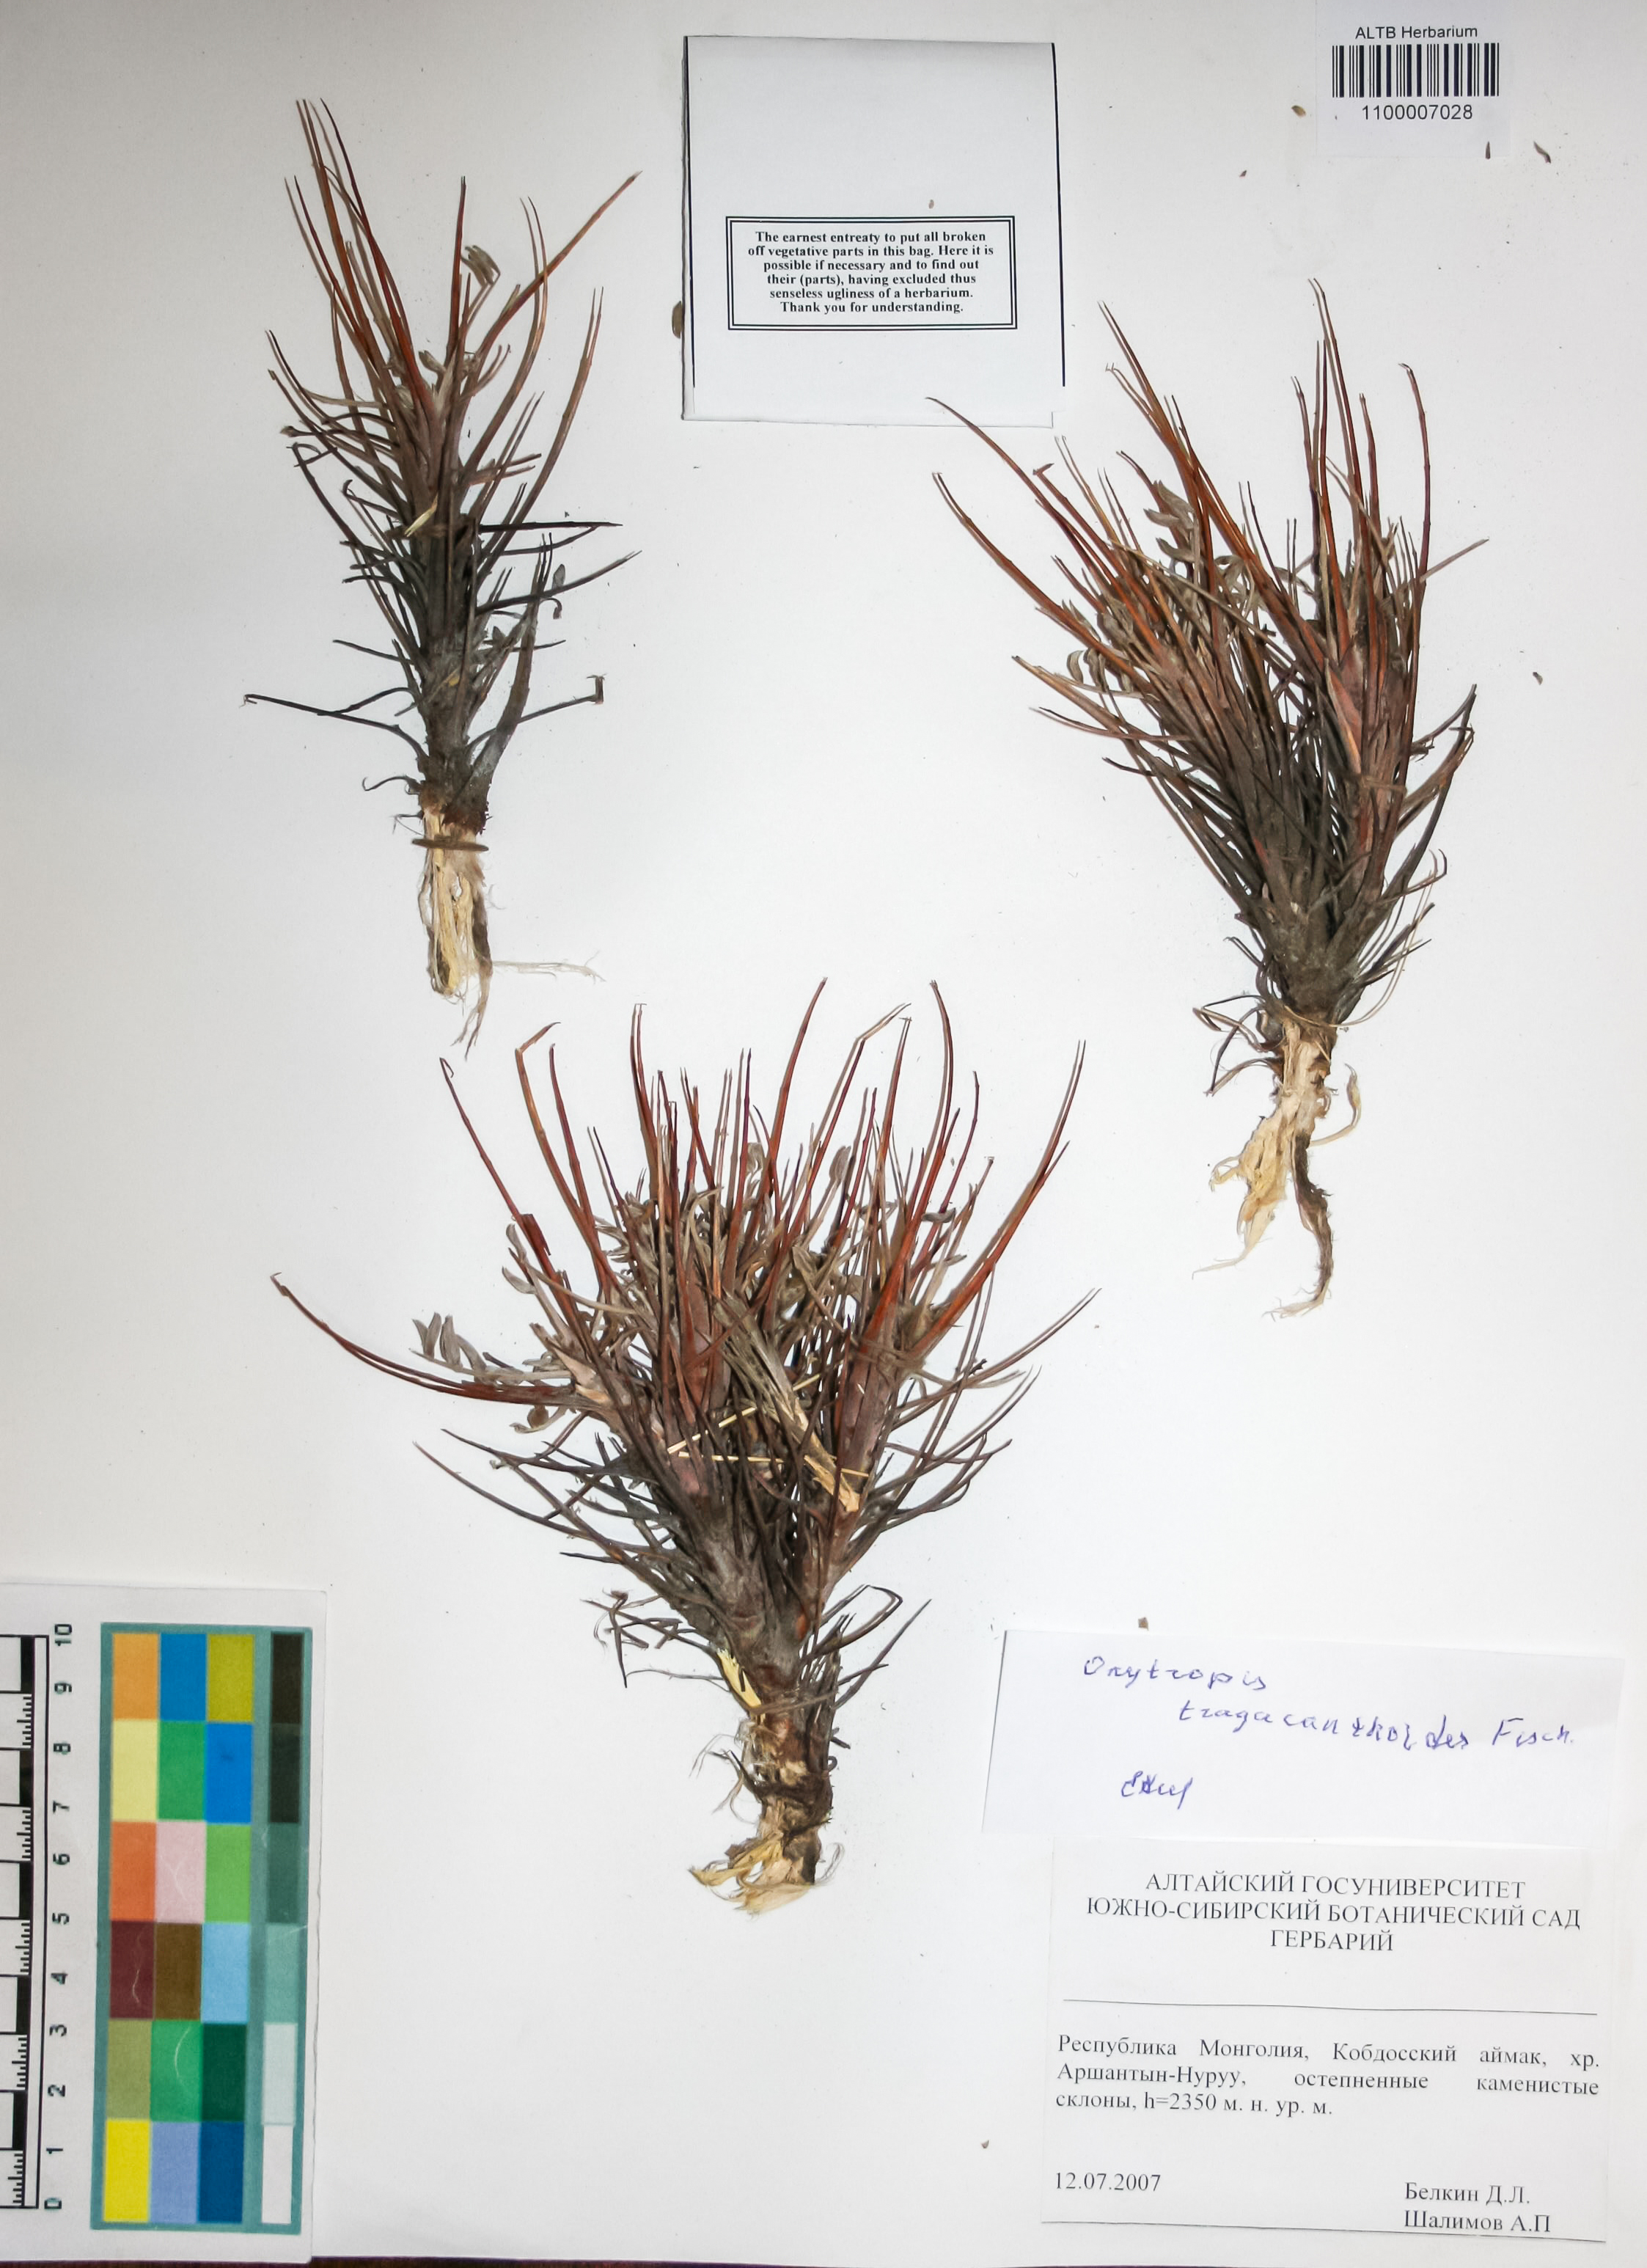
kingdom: Plantae
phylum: Tracheophyta
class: Magnoliopsida
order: Fabales
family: Fabaceae
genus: Oxytropis
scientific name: Oxytropis tragacanthoides
